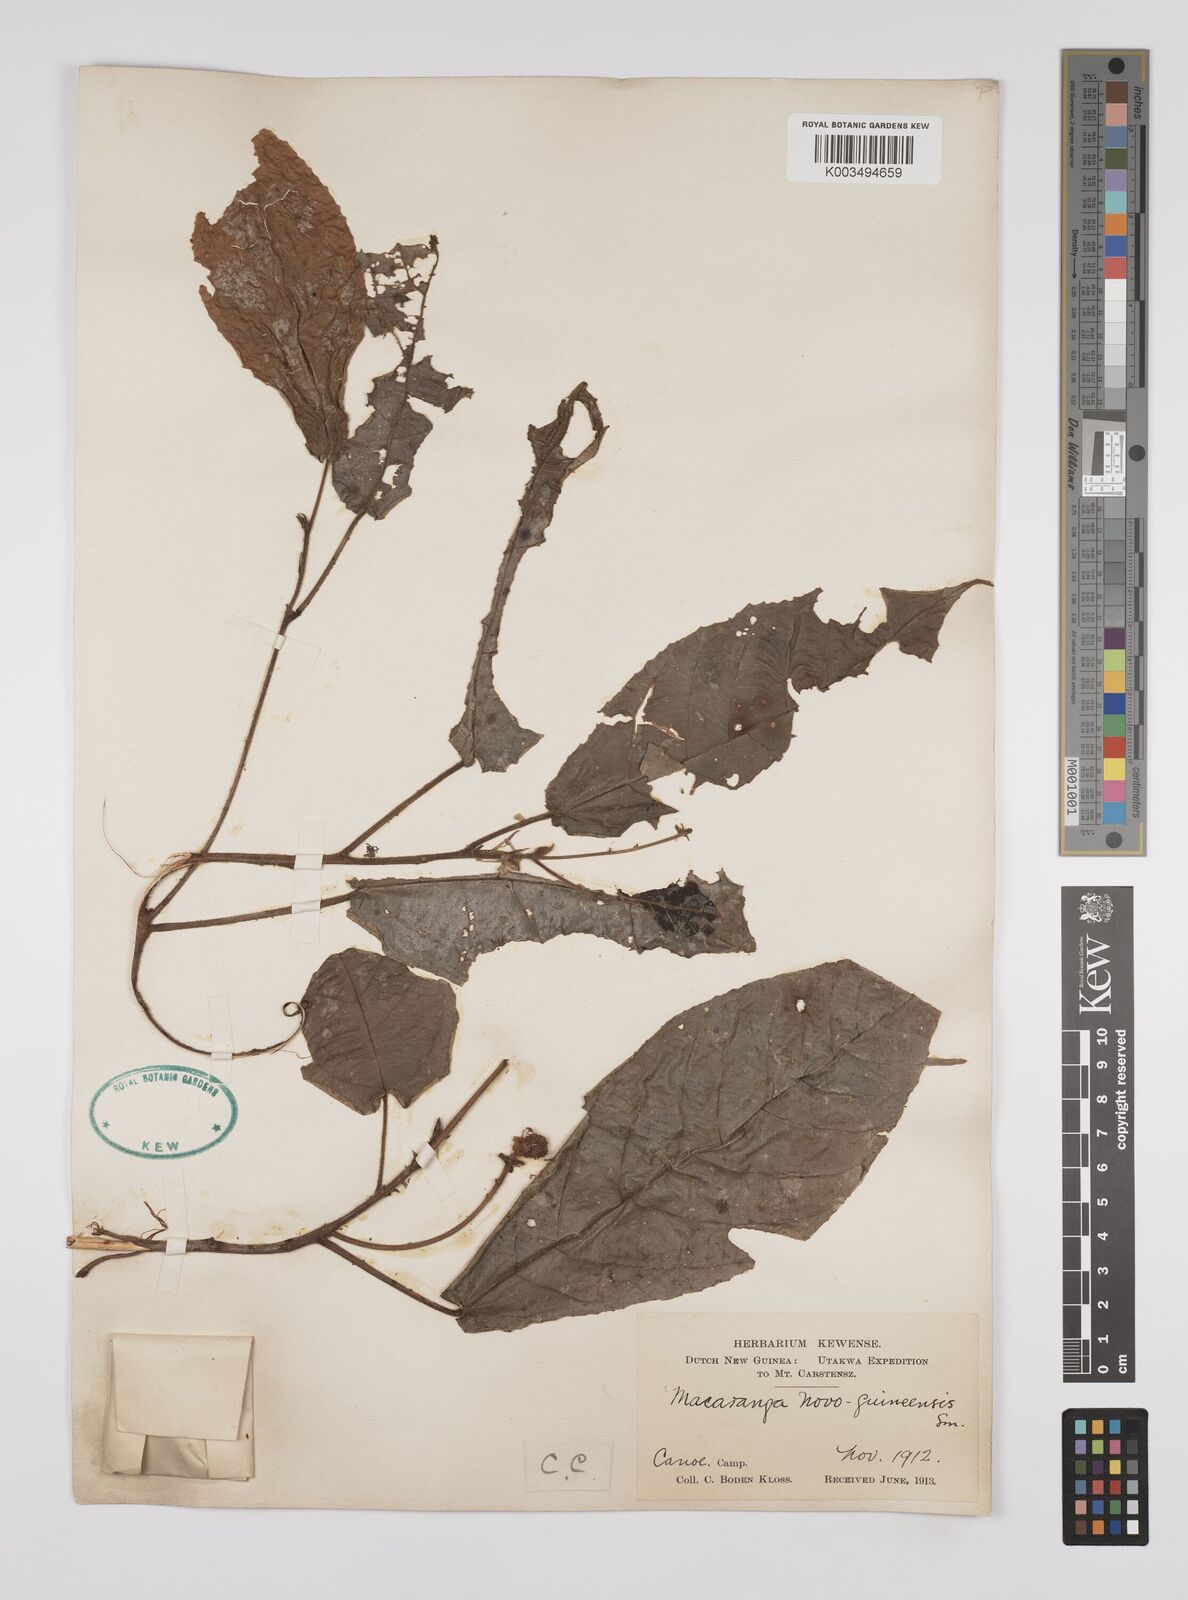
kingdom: Plantae
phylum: Tracheophyta
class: Magnoliopsida
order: Malpighiales
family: Euphorbiaceae
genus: Macaranga
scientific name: Macaranga novoguineensis
